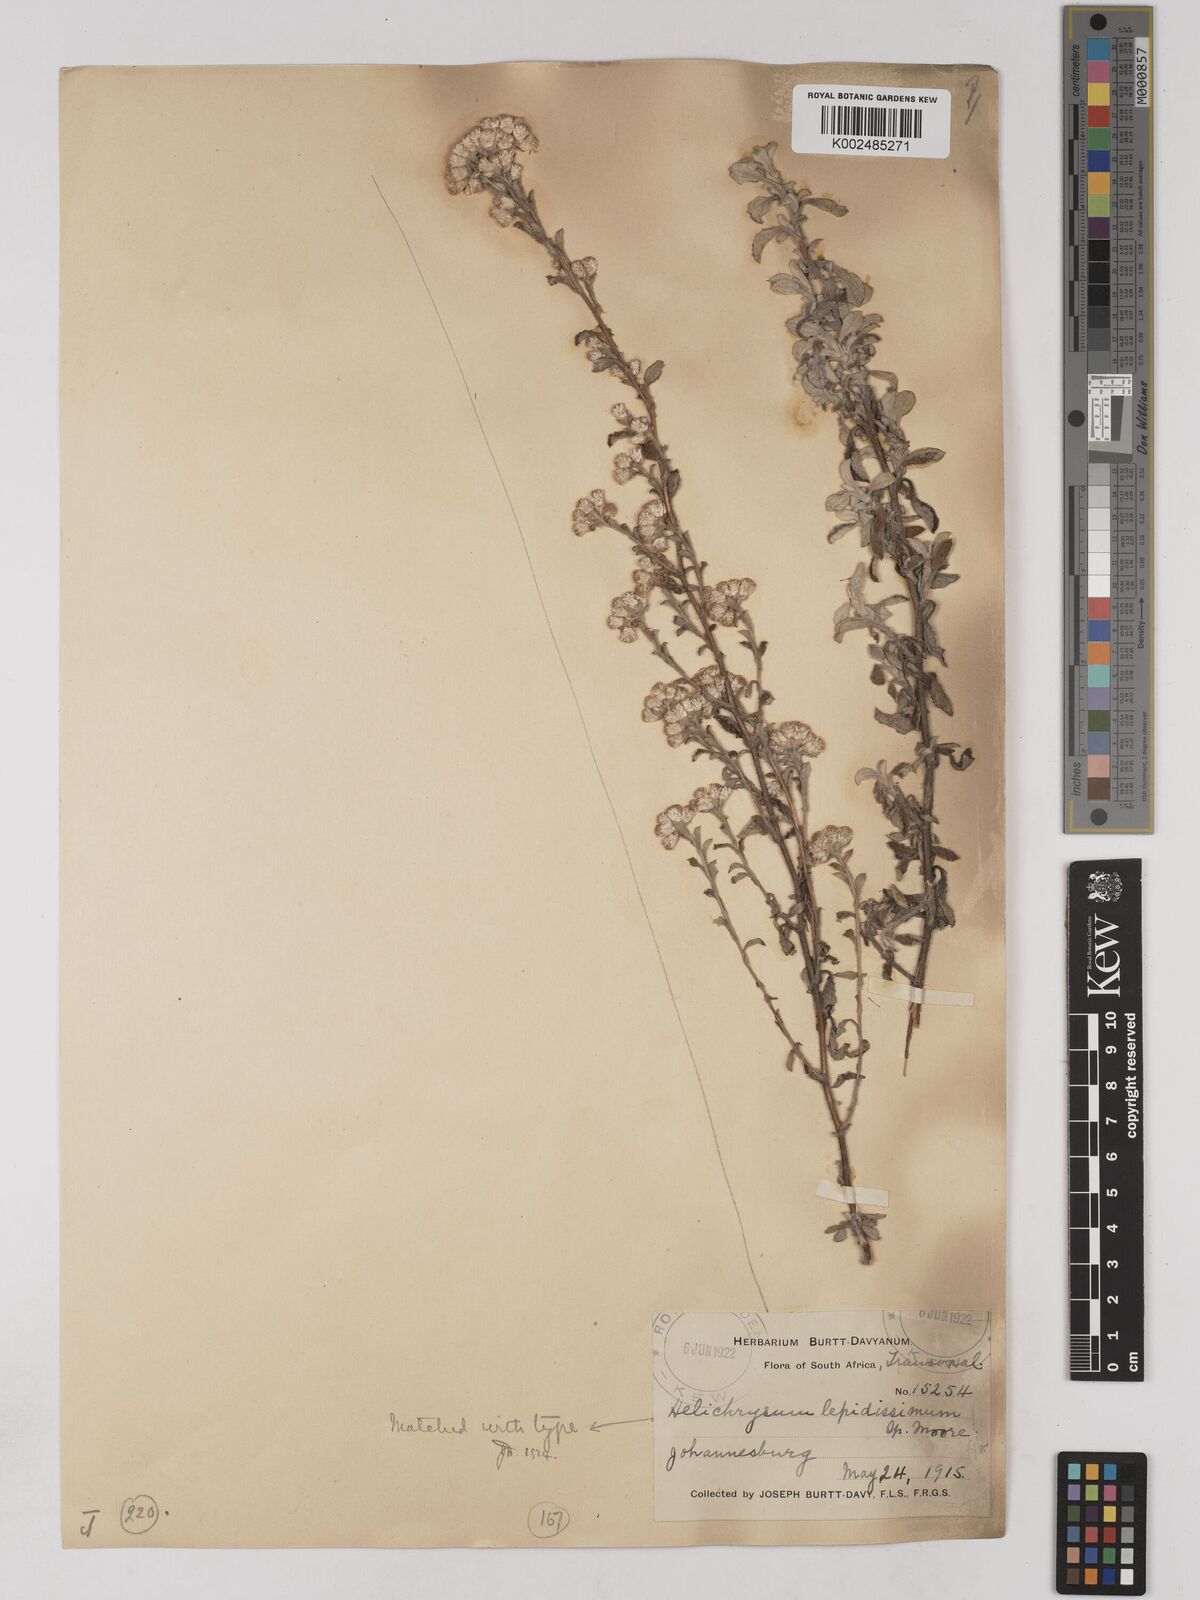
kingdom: Plantae
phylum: Tracheophyta
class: Magnoliopsida
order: Asterales
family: Asteraceae
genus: Helichrysum
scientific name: Helichrysum lepidissimum
